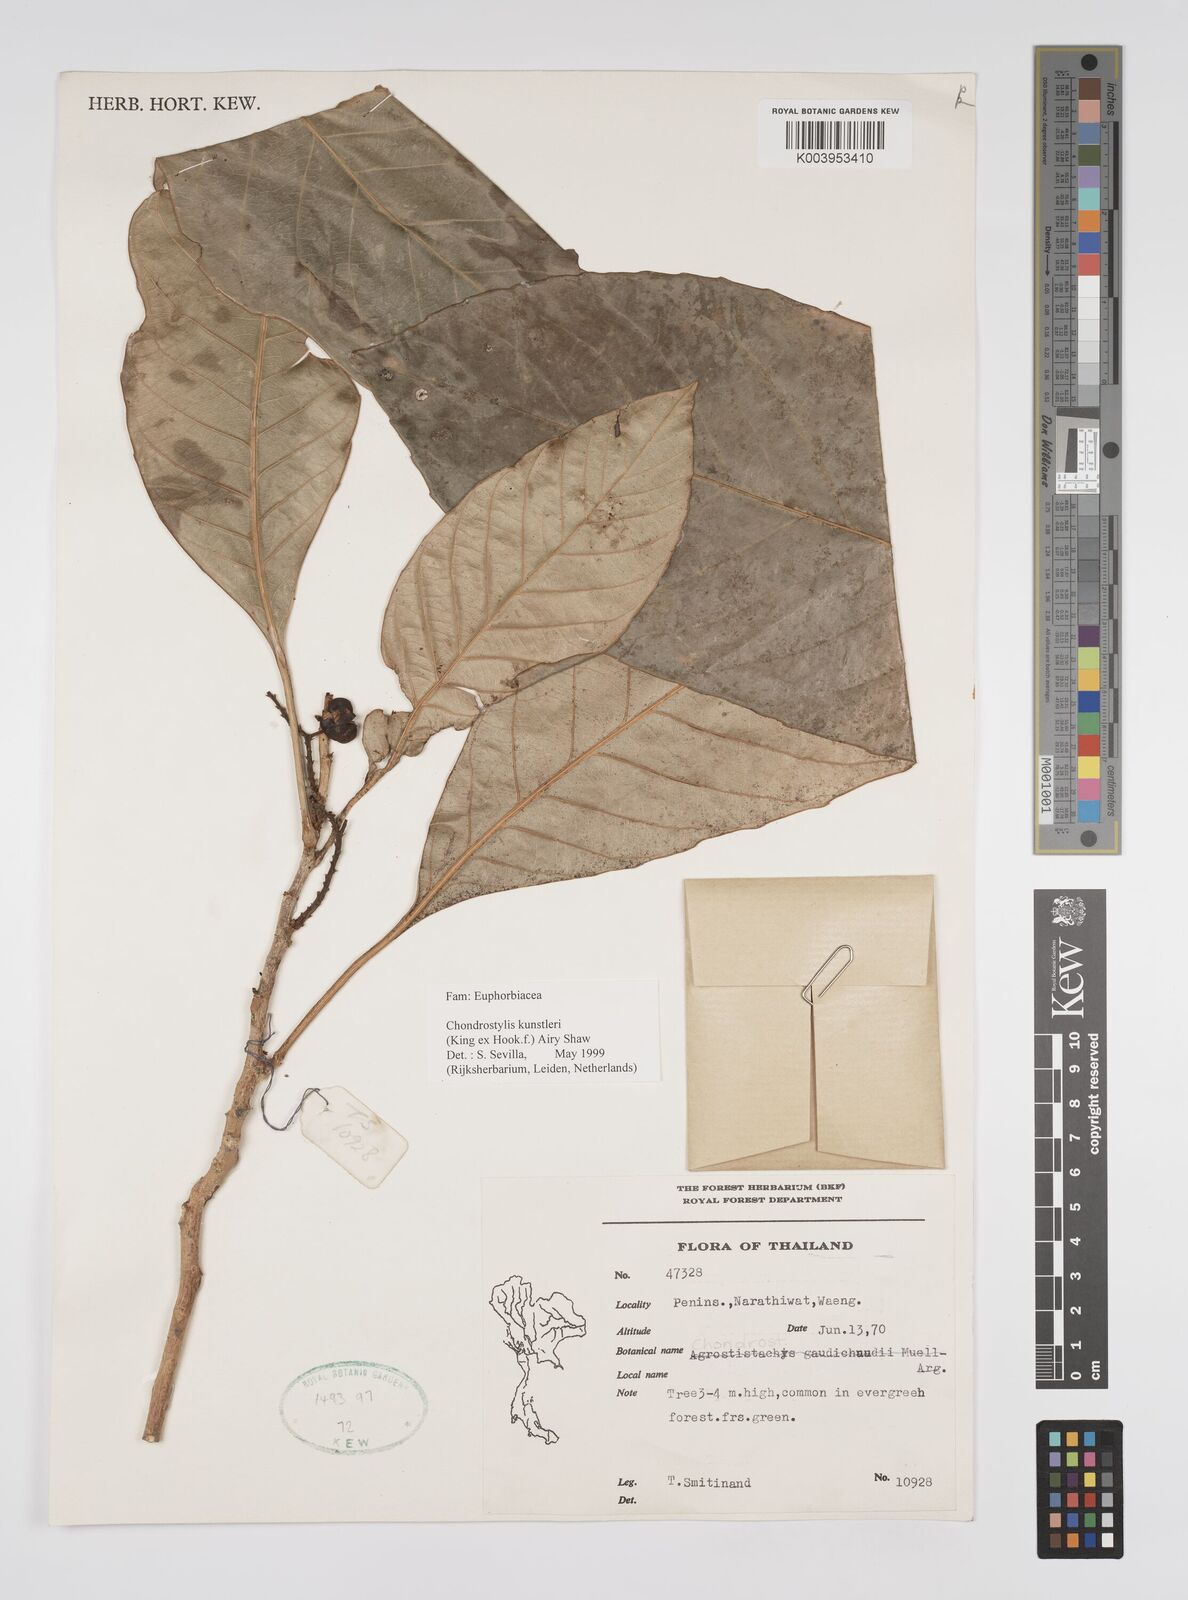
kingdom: Plantae
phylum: Tracheophyta
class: Magnoliopsida
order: Malpighiales
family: Euphorbiaceae
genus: Chondrostylis
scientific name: Chondrostylis kunstleri
